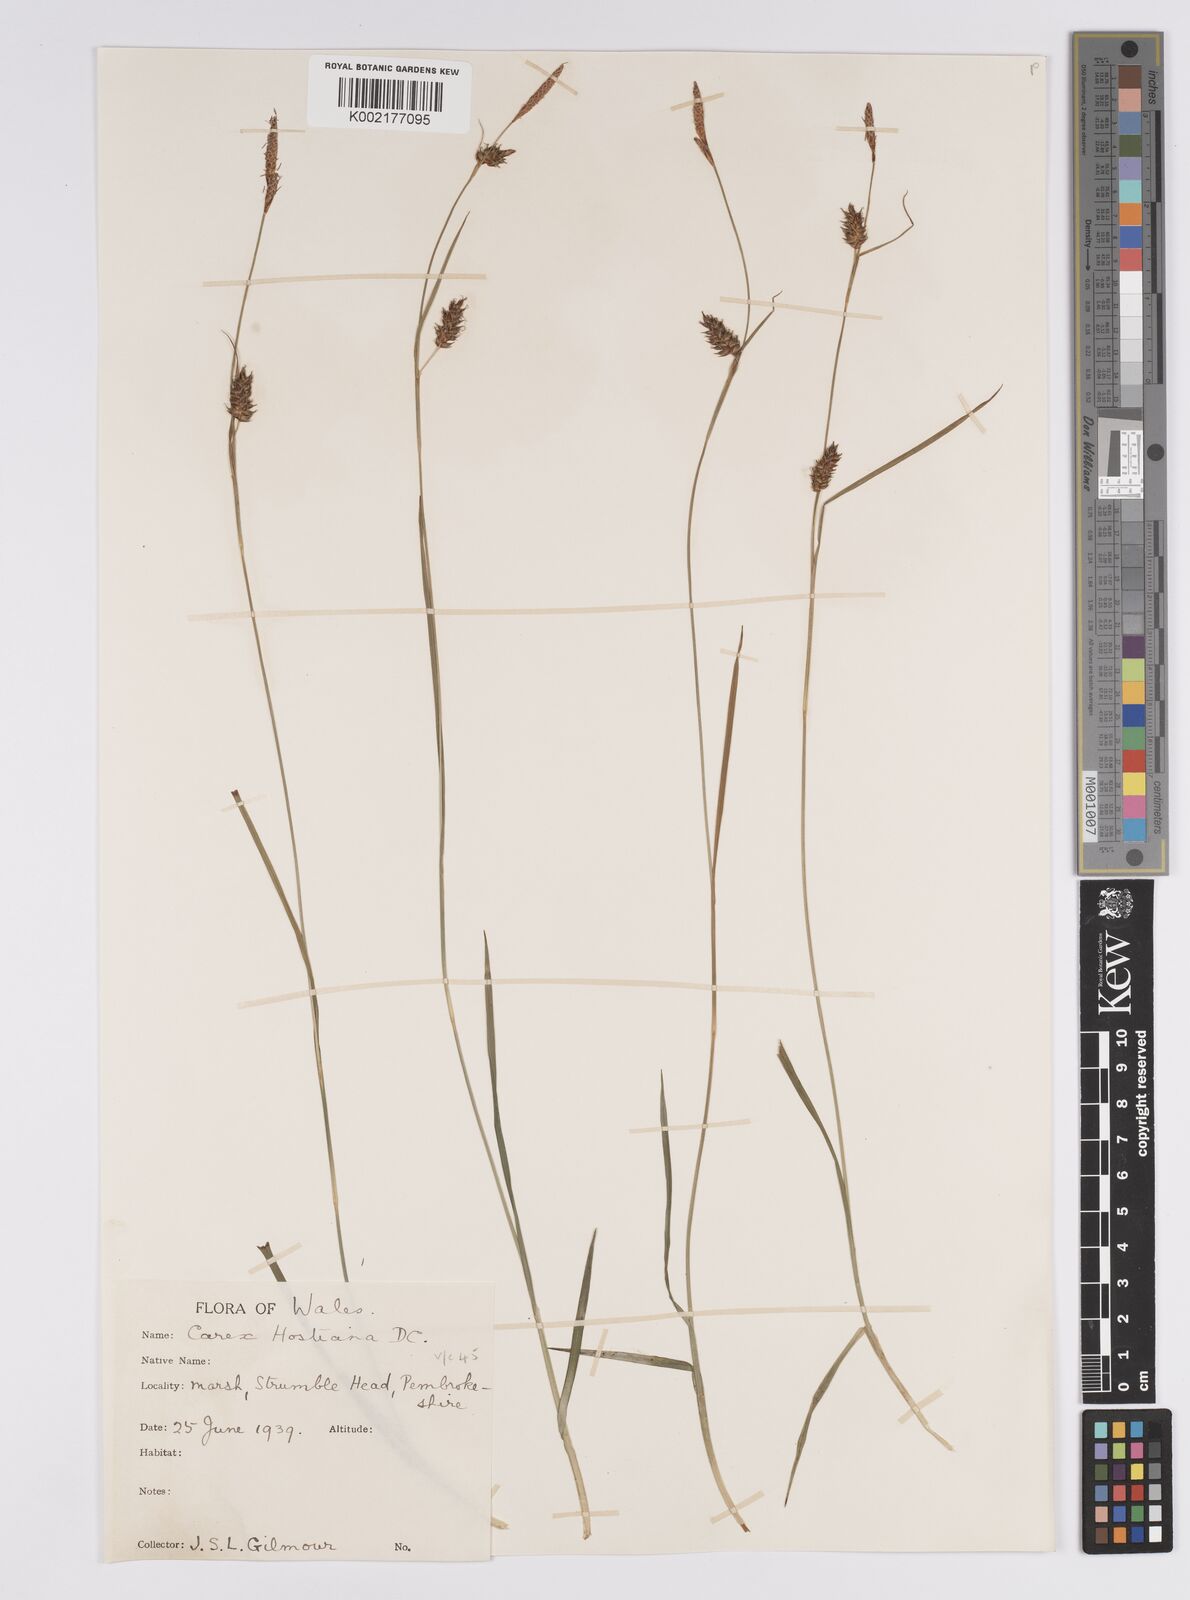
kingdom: Plantae
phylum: Tracheophyta
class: Liliopsida
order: Poales
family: Cyperaceae
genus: Carex
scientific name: Carex hostiana
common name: Tawny sedge
